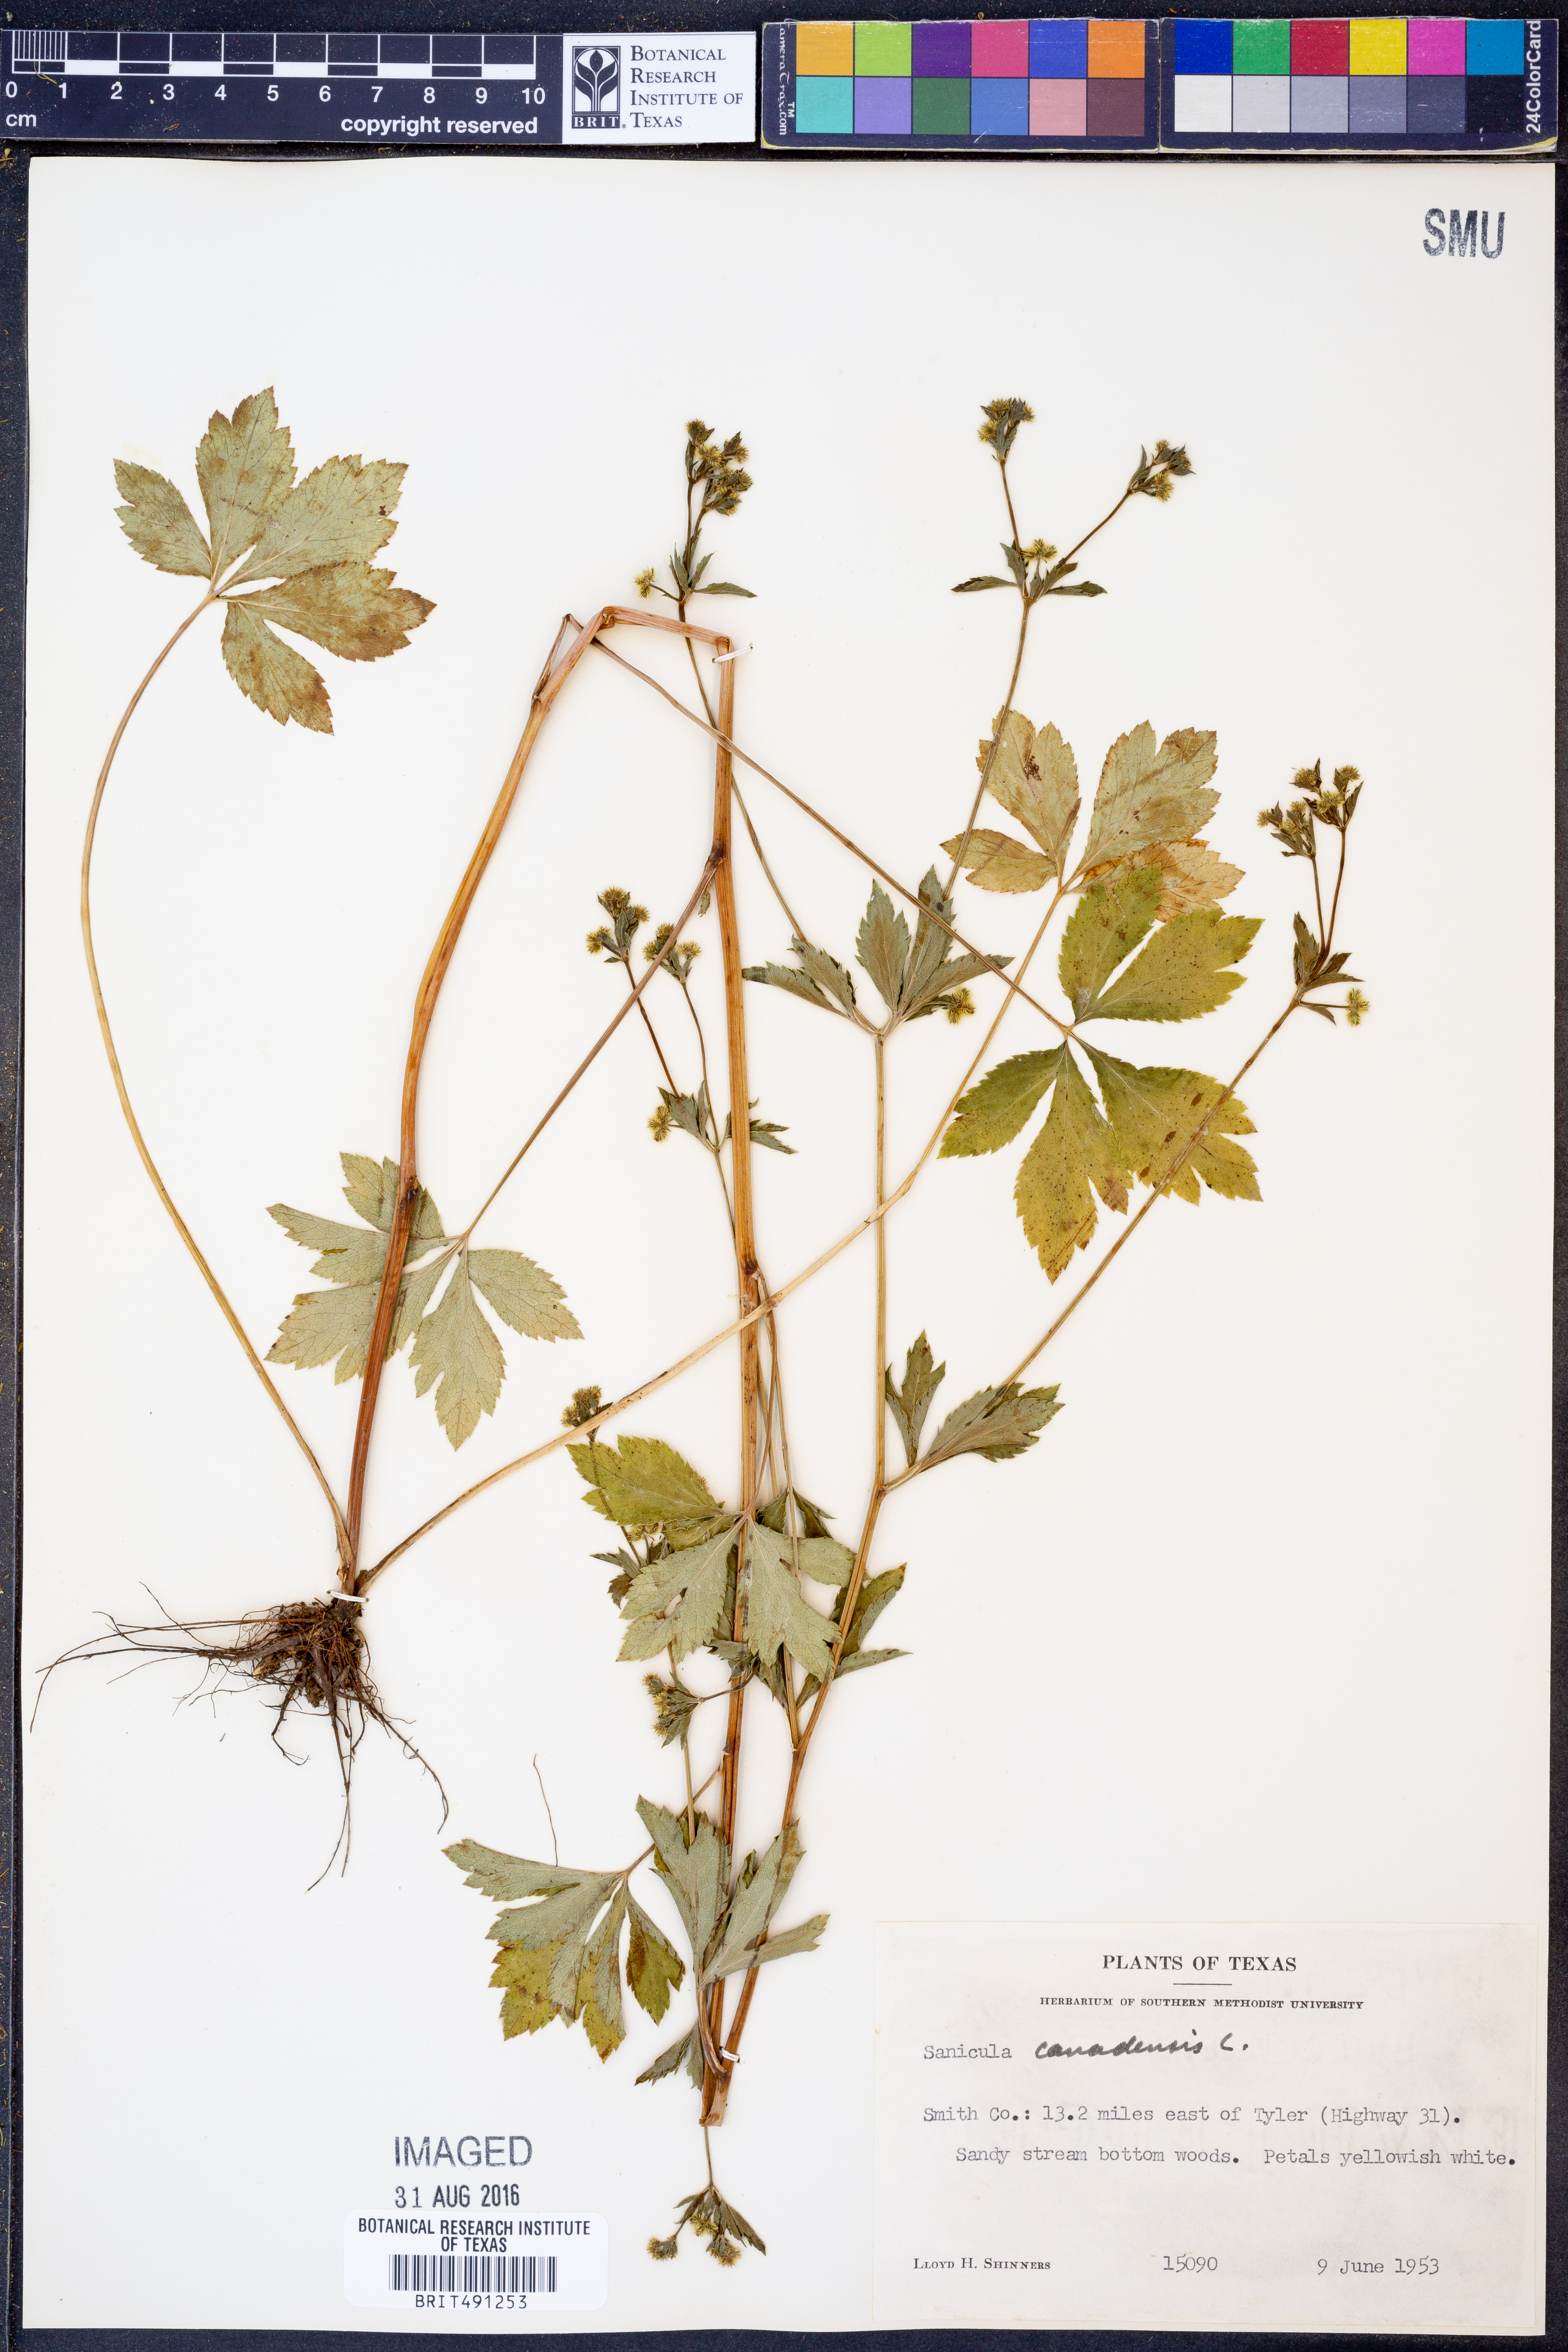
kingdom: Plantae
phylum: Tracheophyta
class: Magnoliopsida
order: Apiales
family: Apiaceae
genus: Sanicula
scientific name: Sanicula canadensis
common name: Canada sanicle
